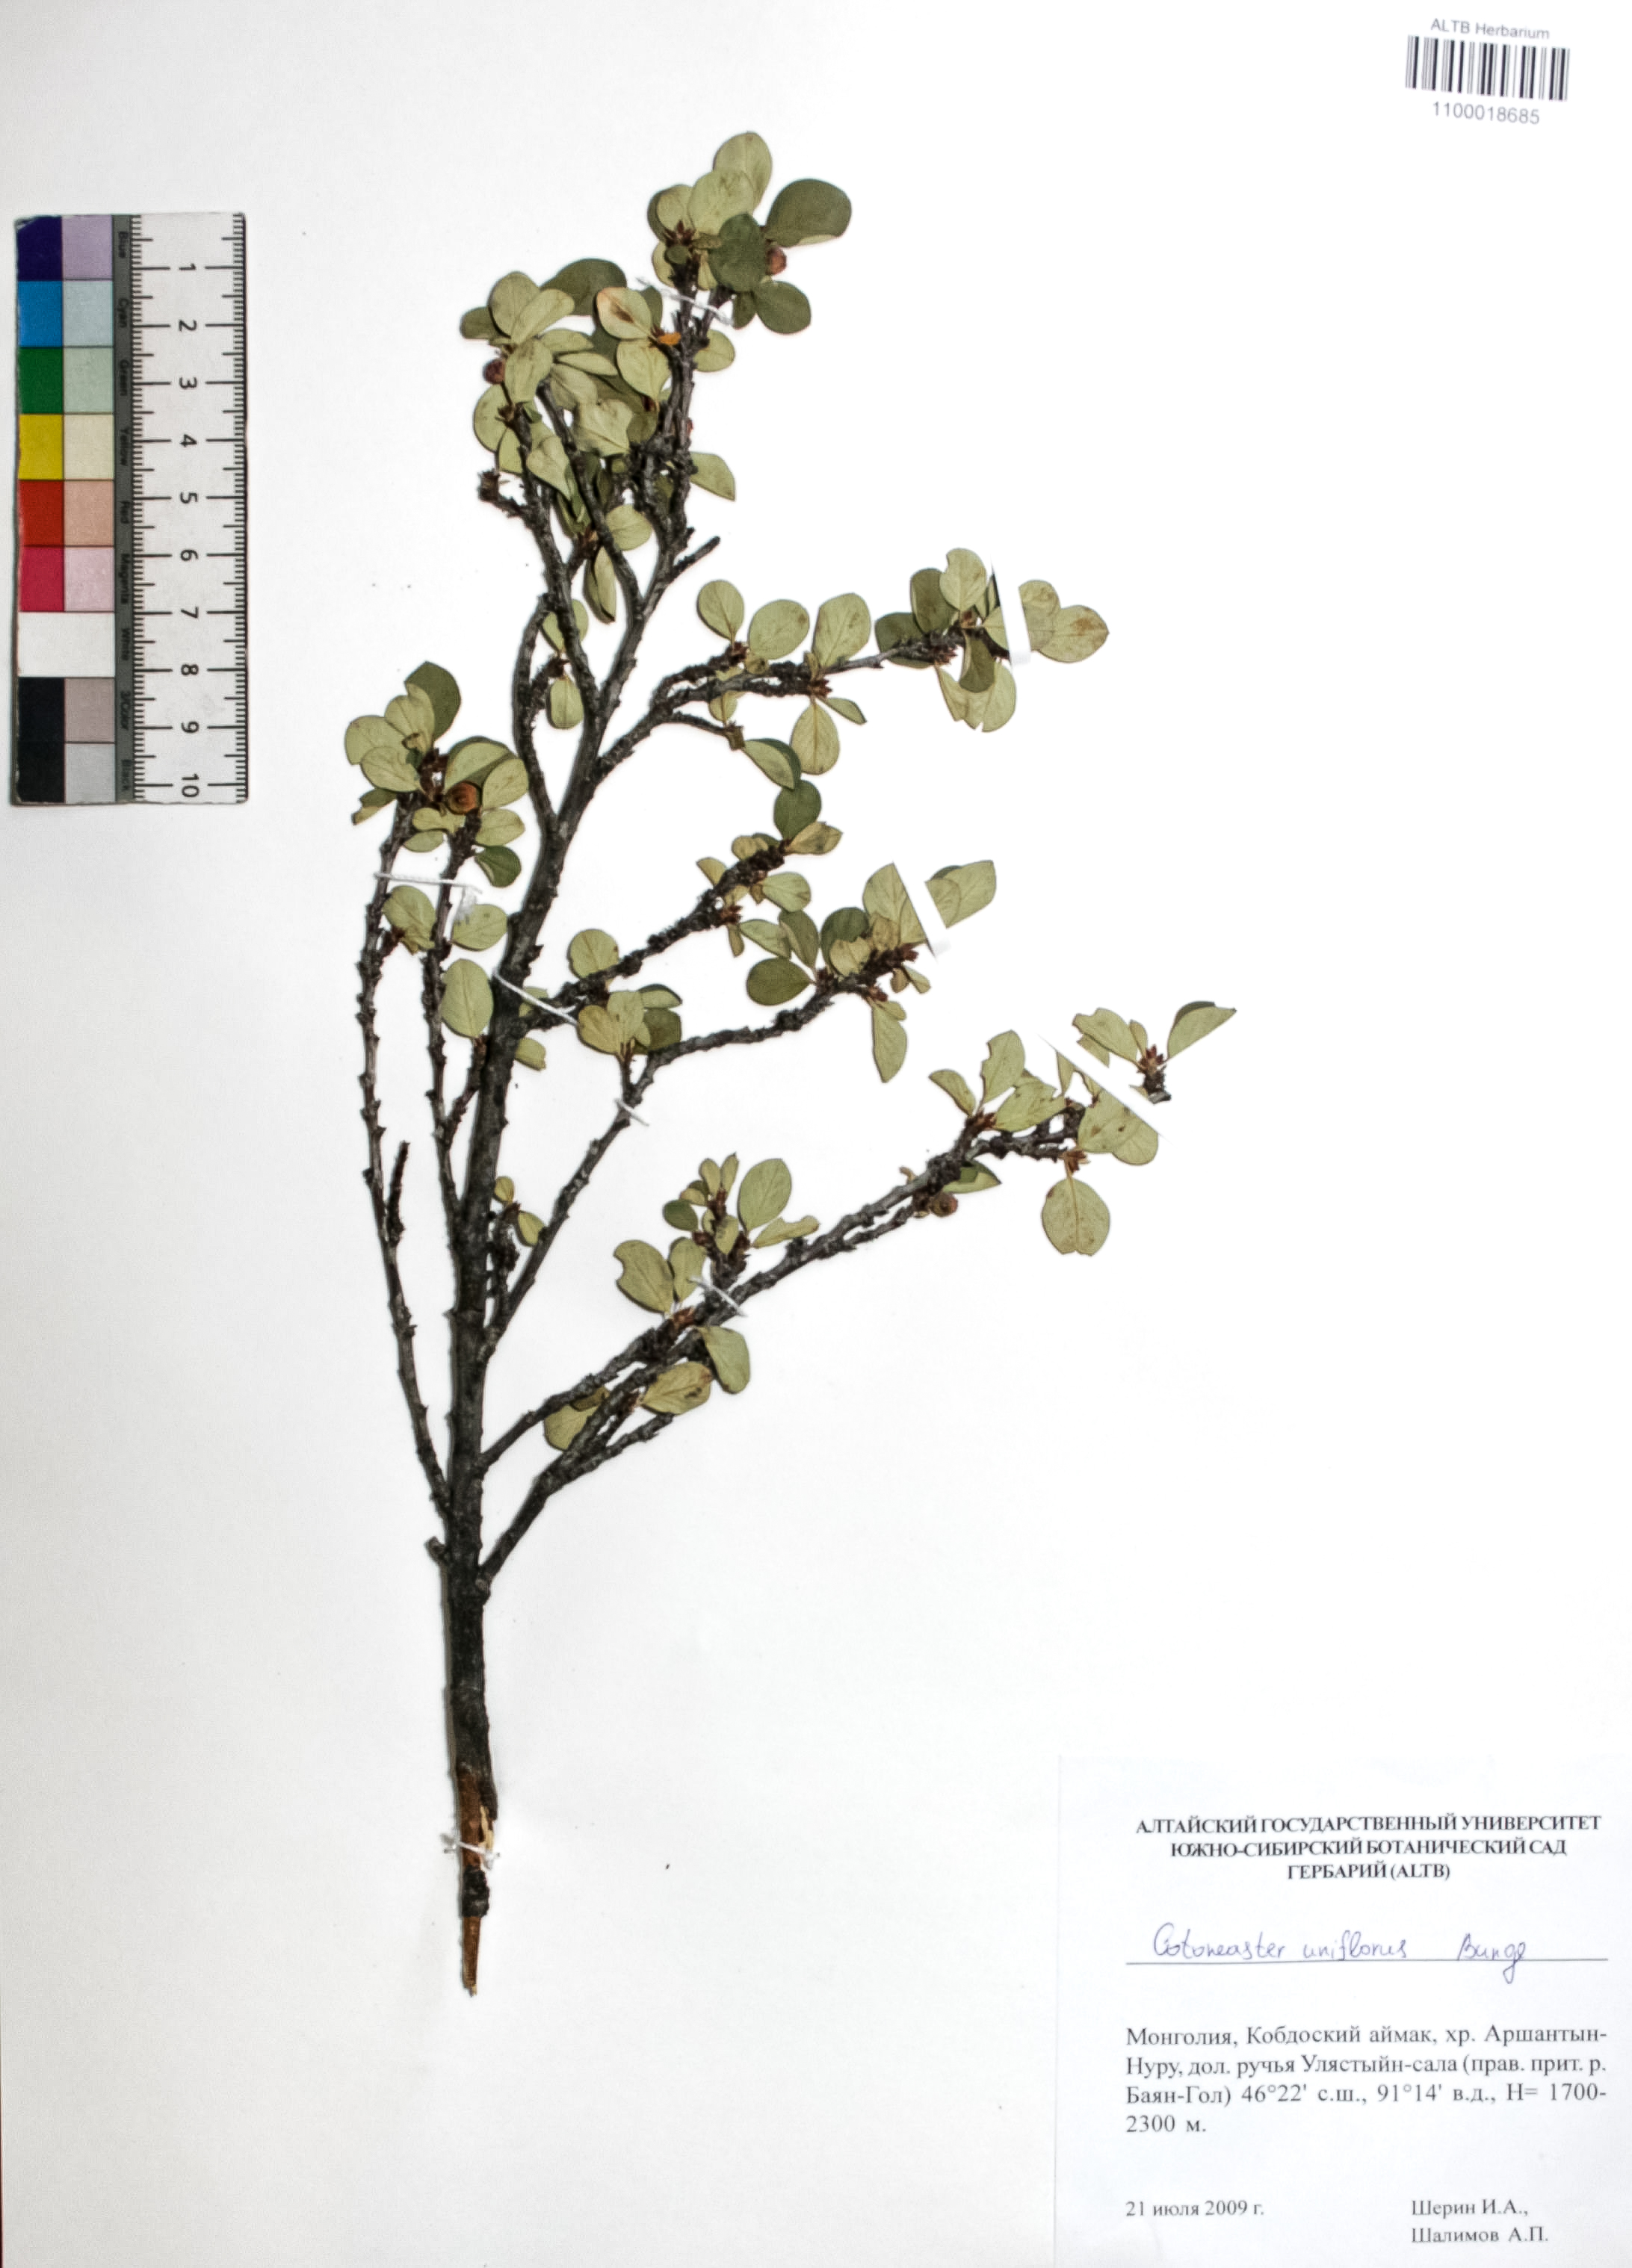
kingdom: Plantae
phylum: Tracheophyta
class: Magnoliopsida
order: Rosales
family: Rosaceae
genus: Cotoneaster
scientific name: Cotoneaster uniflorus
